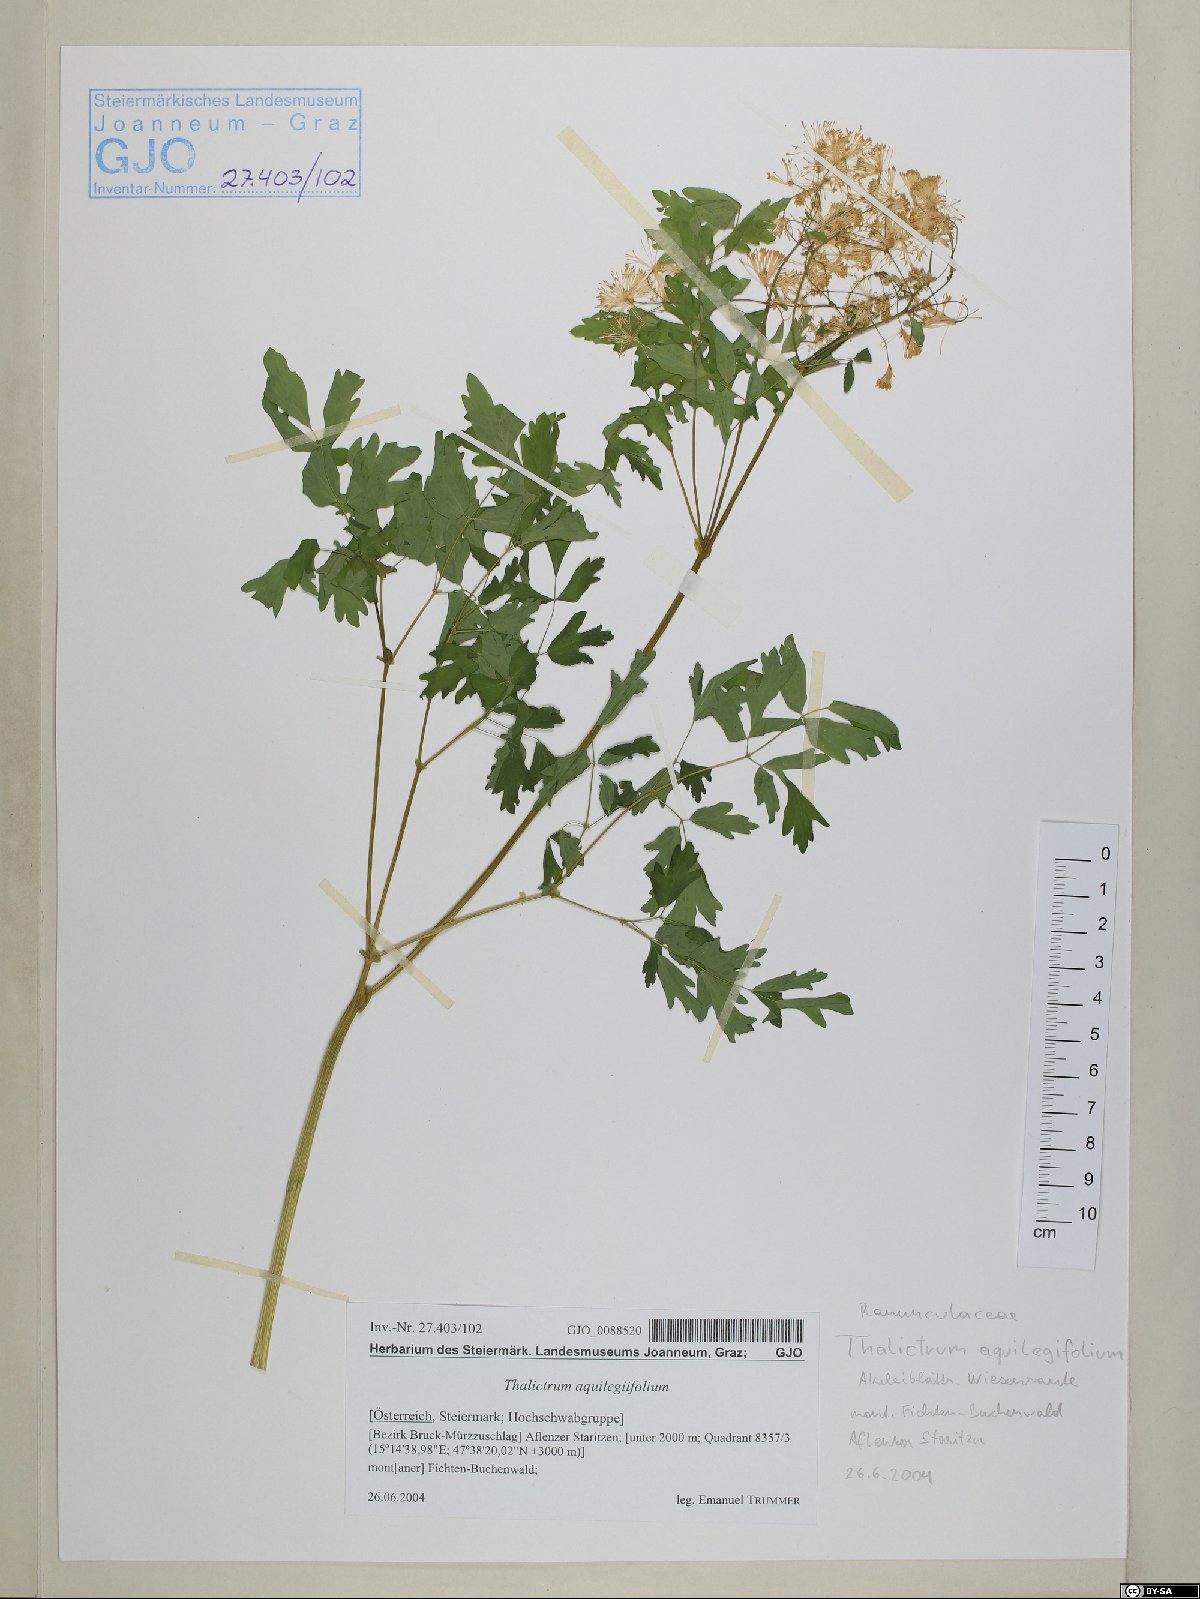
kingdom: Plantae
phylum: Tracheophyta
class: Magnoliopsida
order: Ranunculales
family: Ranunculaceae
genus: Thalictrum
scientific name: Thalictrum aquilegiifolium
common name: French meadow-rue
